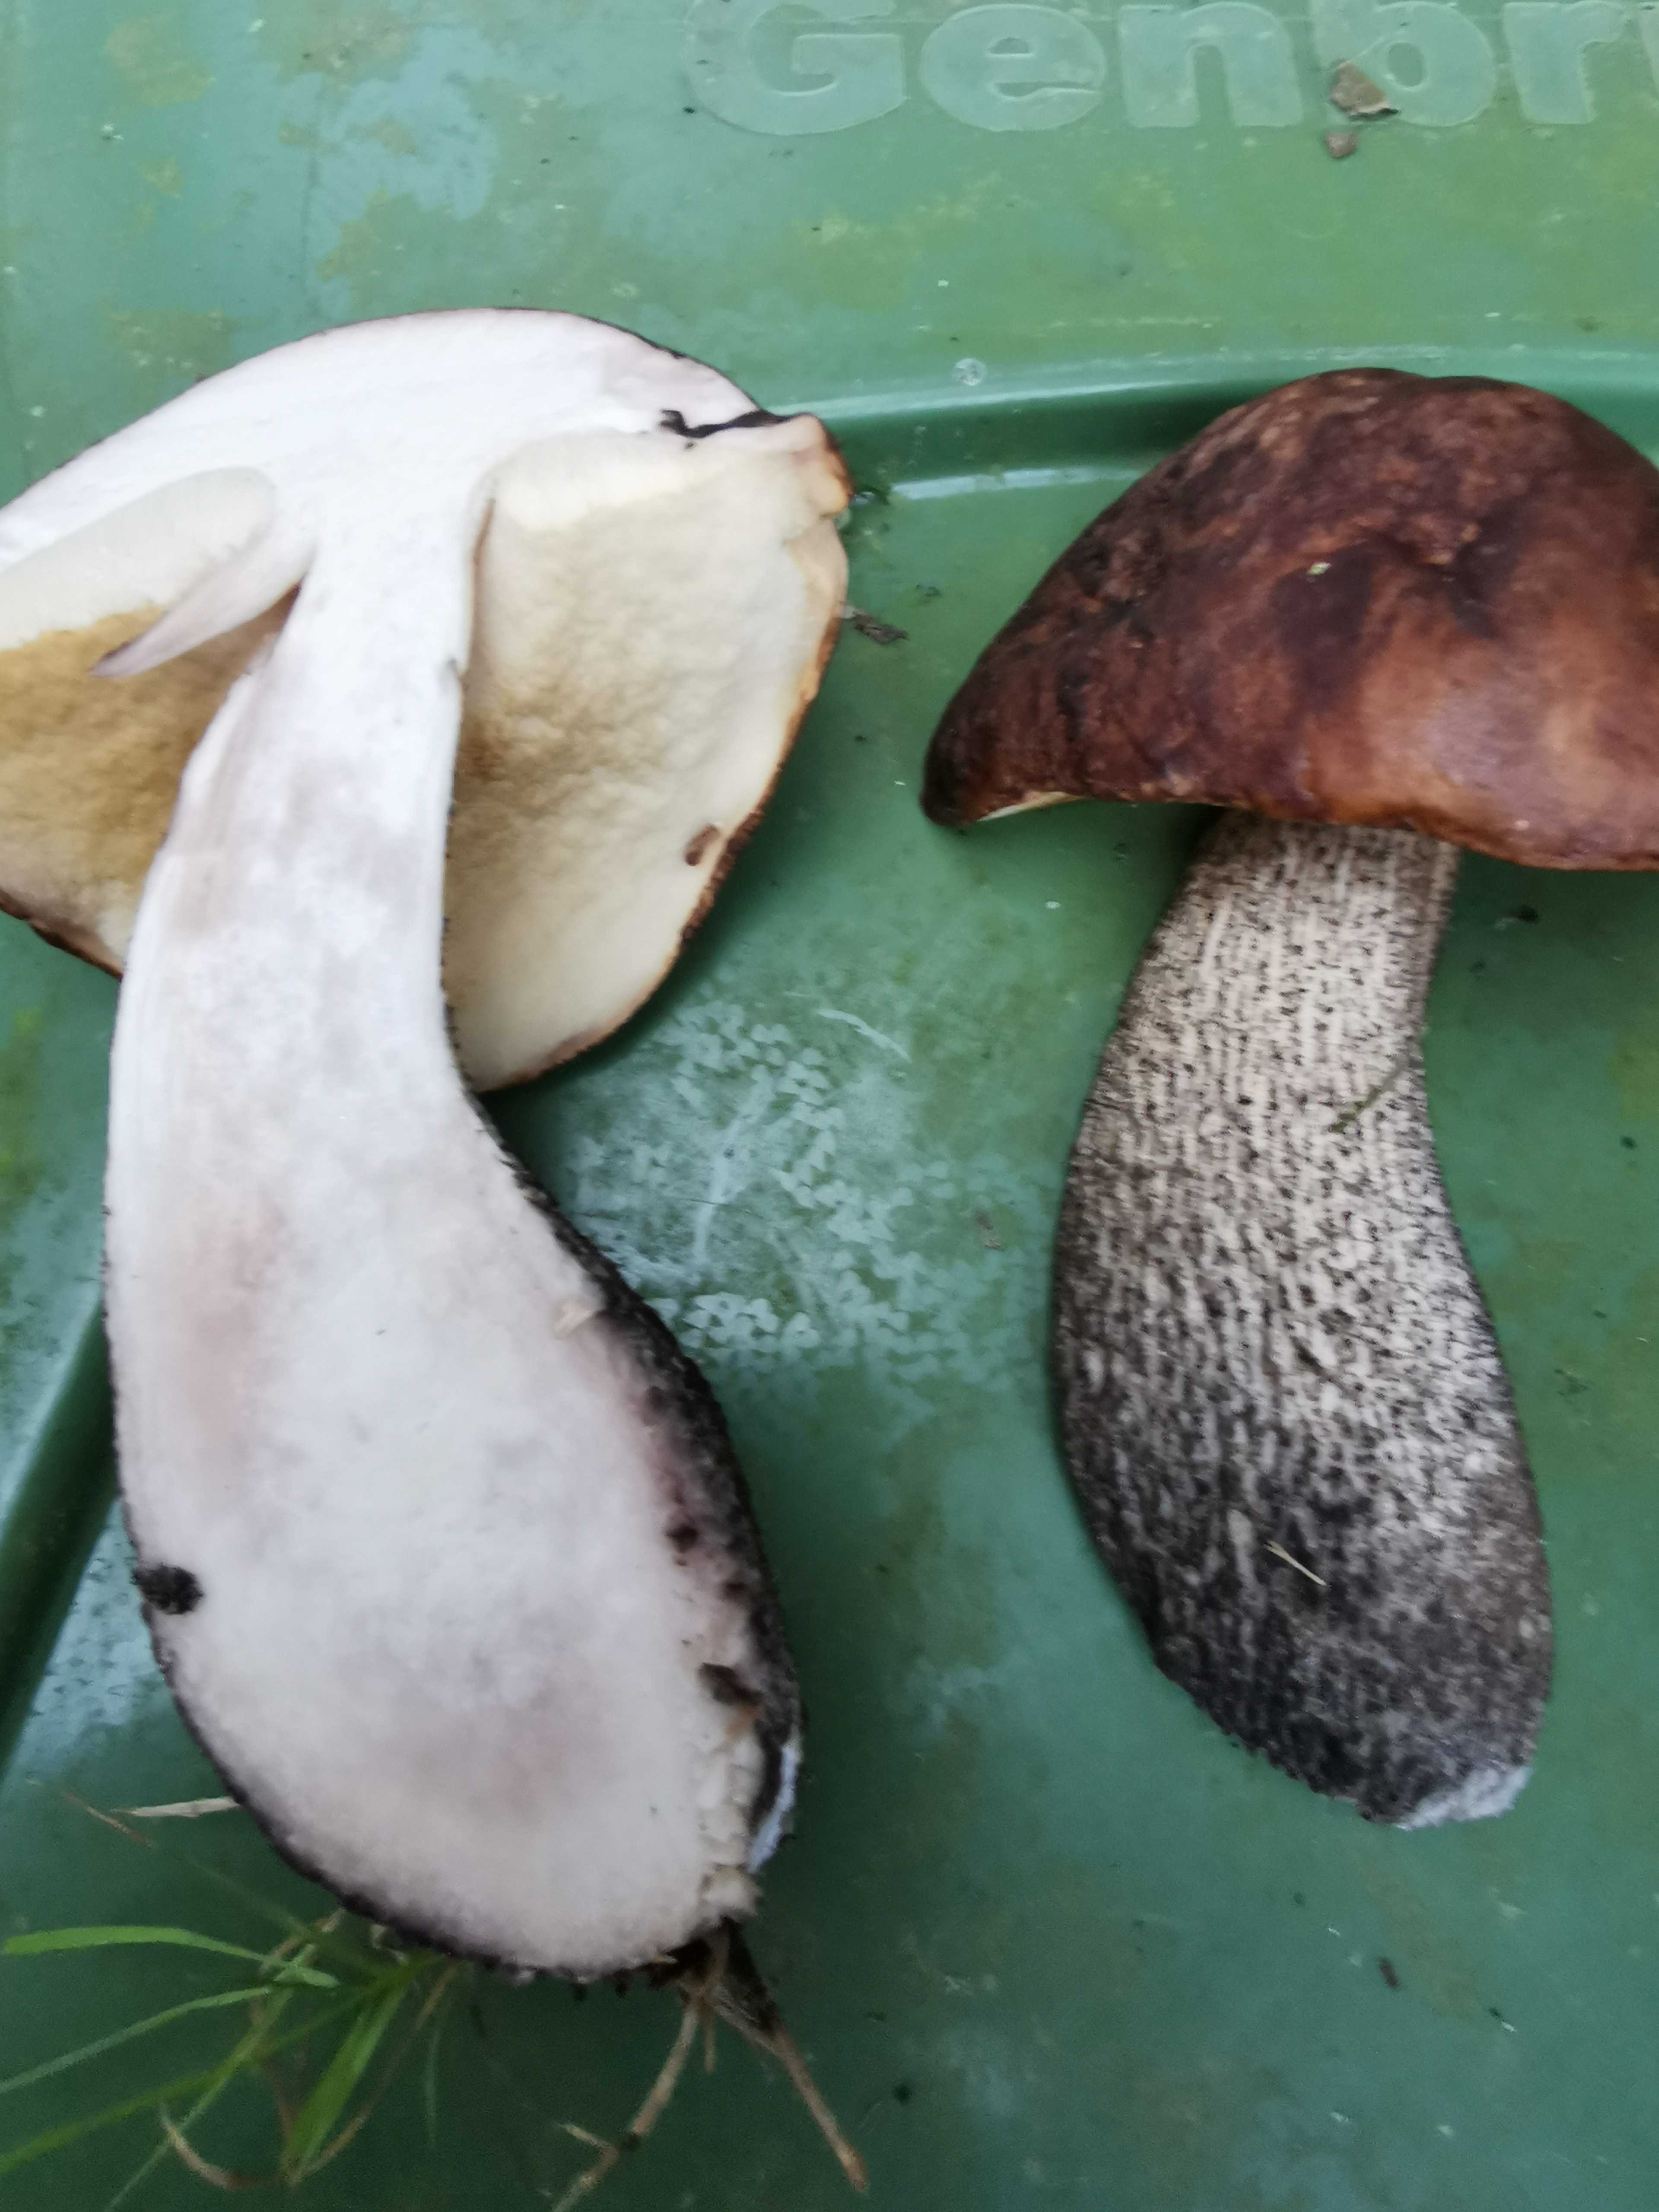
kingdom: Fungi
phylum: Basidiomycota
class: Agaricomycetes
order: Boletales
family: Boletaceae
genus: Leccinum
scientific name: Leccinum scabrum
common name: brun skælrørhat
